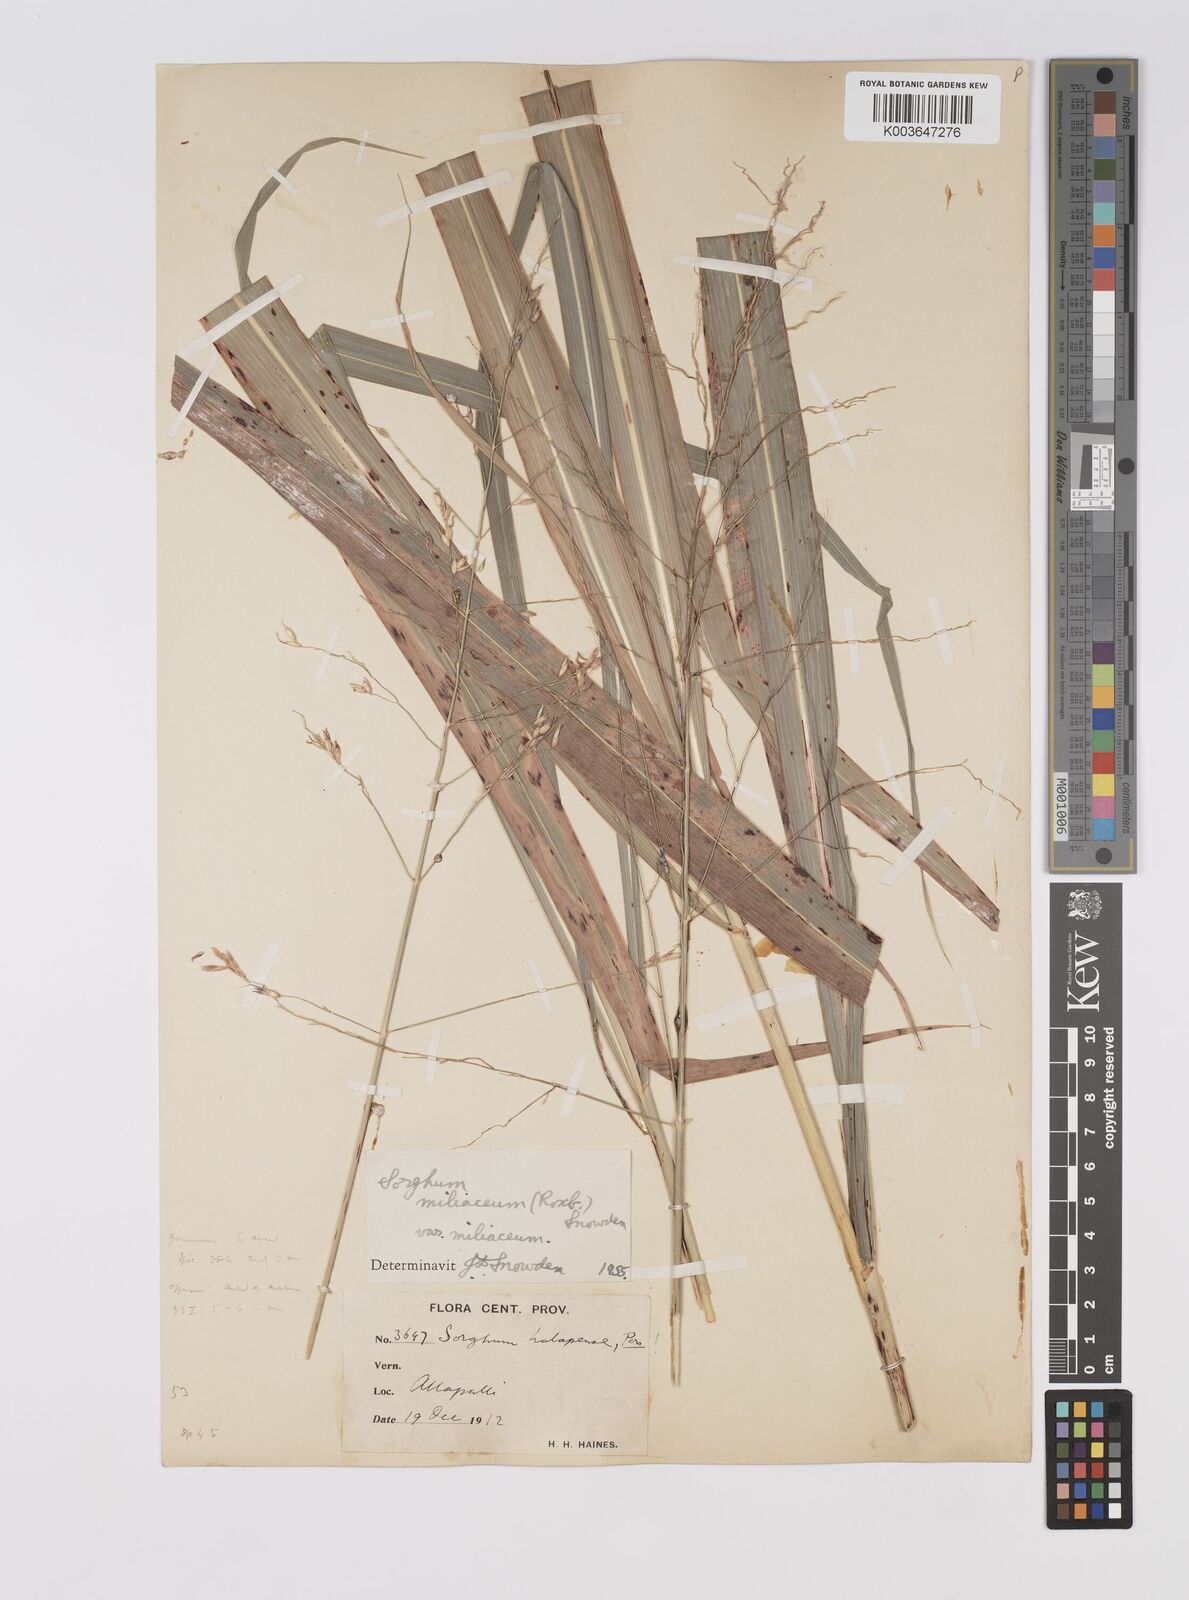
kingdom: Plantae
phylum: Tracheophyta
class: Liliopsida
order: Poales
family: Poaceae
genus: Sorghum
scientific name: Sorghum halepense
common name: Johnson-grass
